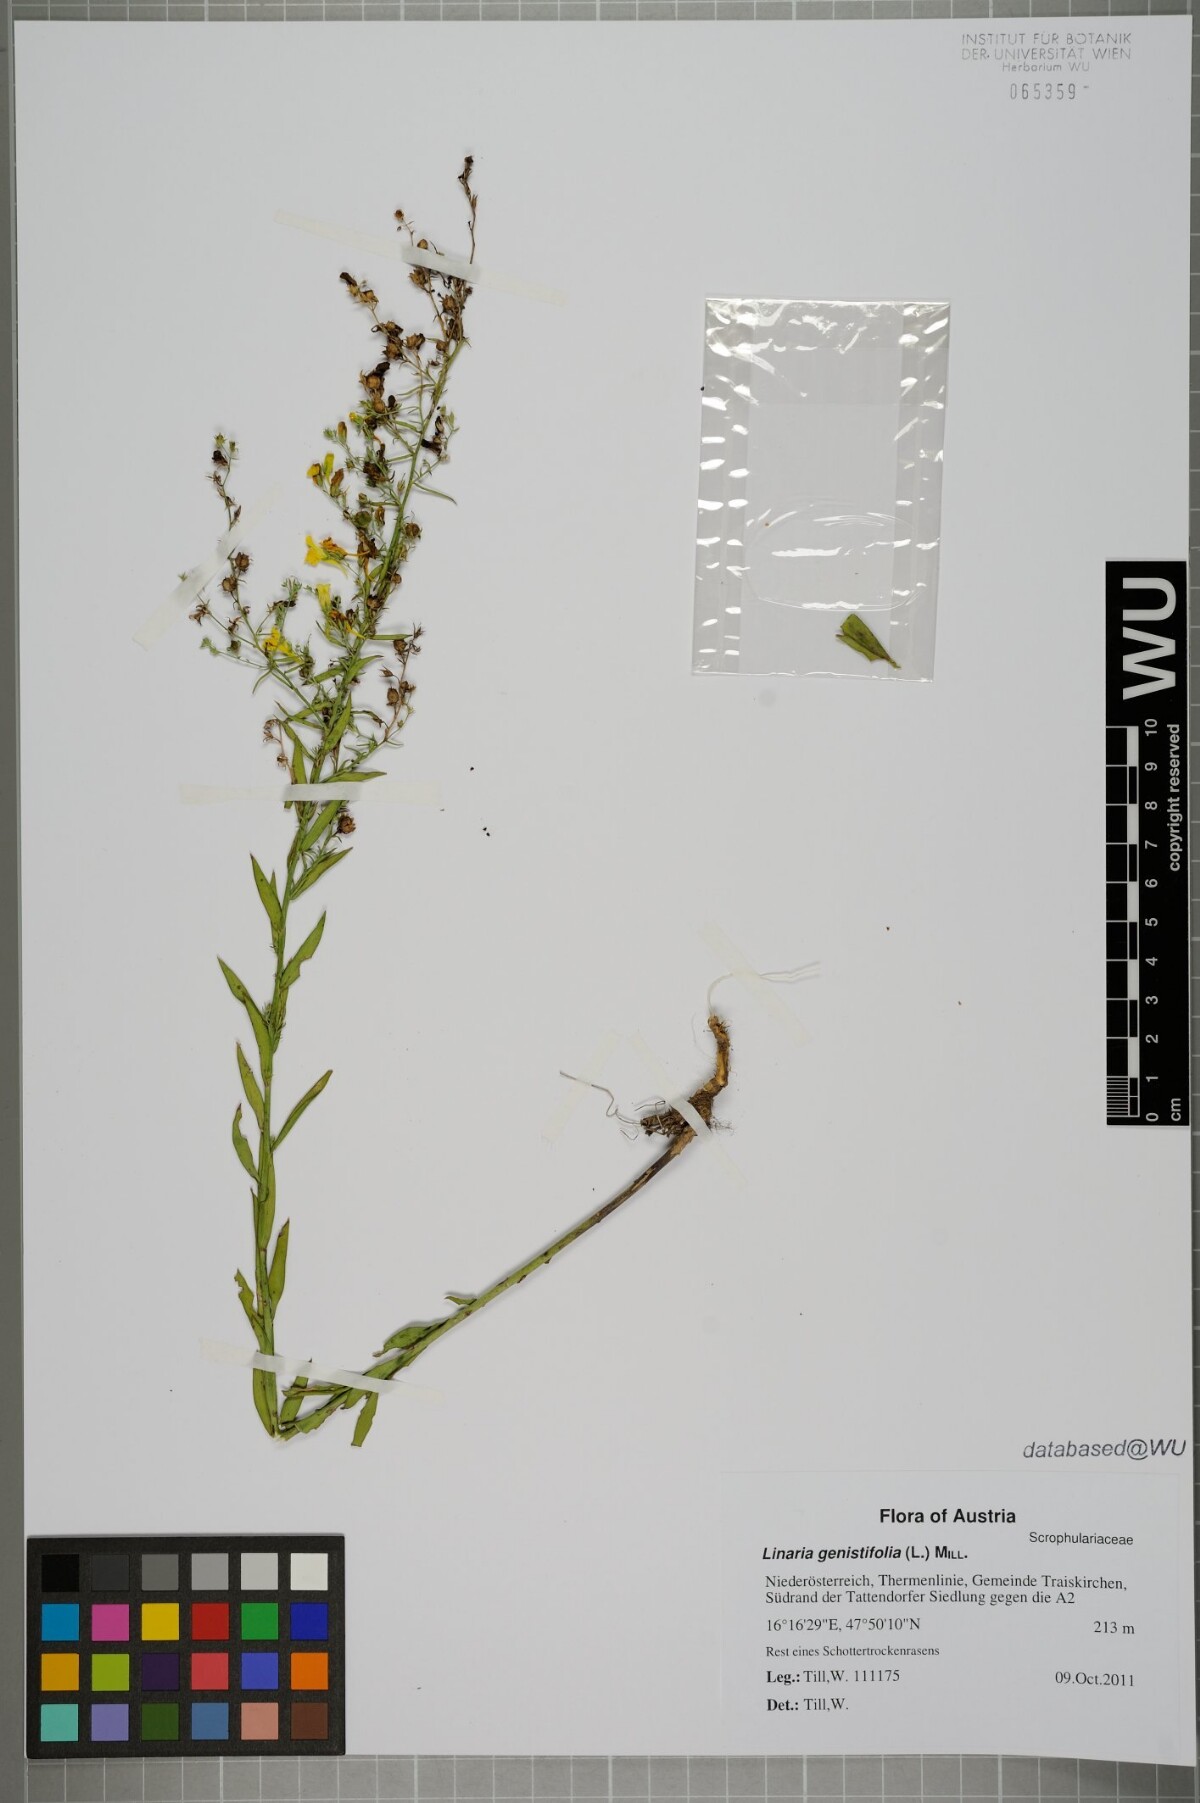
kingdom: Plantae
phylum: Tracheophyta
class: Magnoliopsida
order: Lamiales
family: Plantaginaceae
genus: Linaria
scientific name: Linaria genistifolia
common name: Broomleaf toadflax
